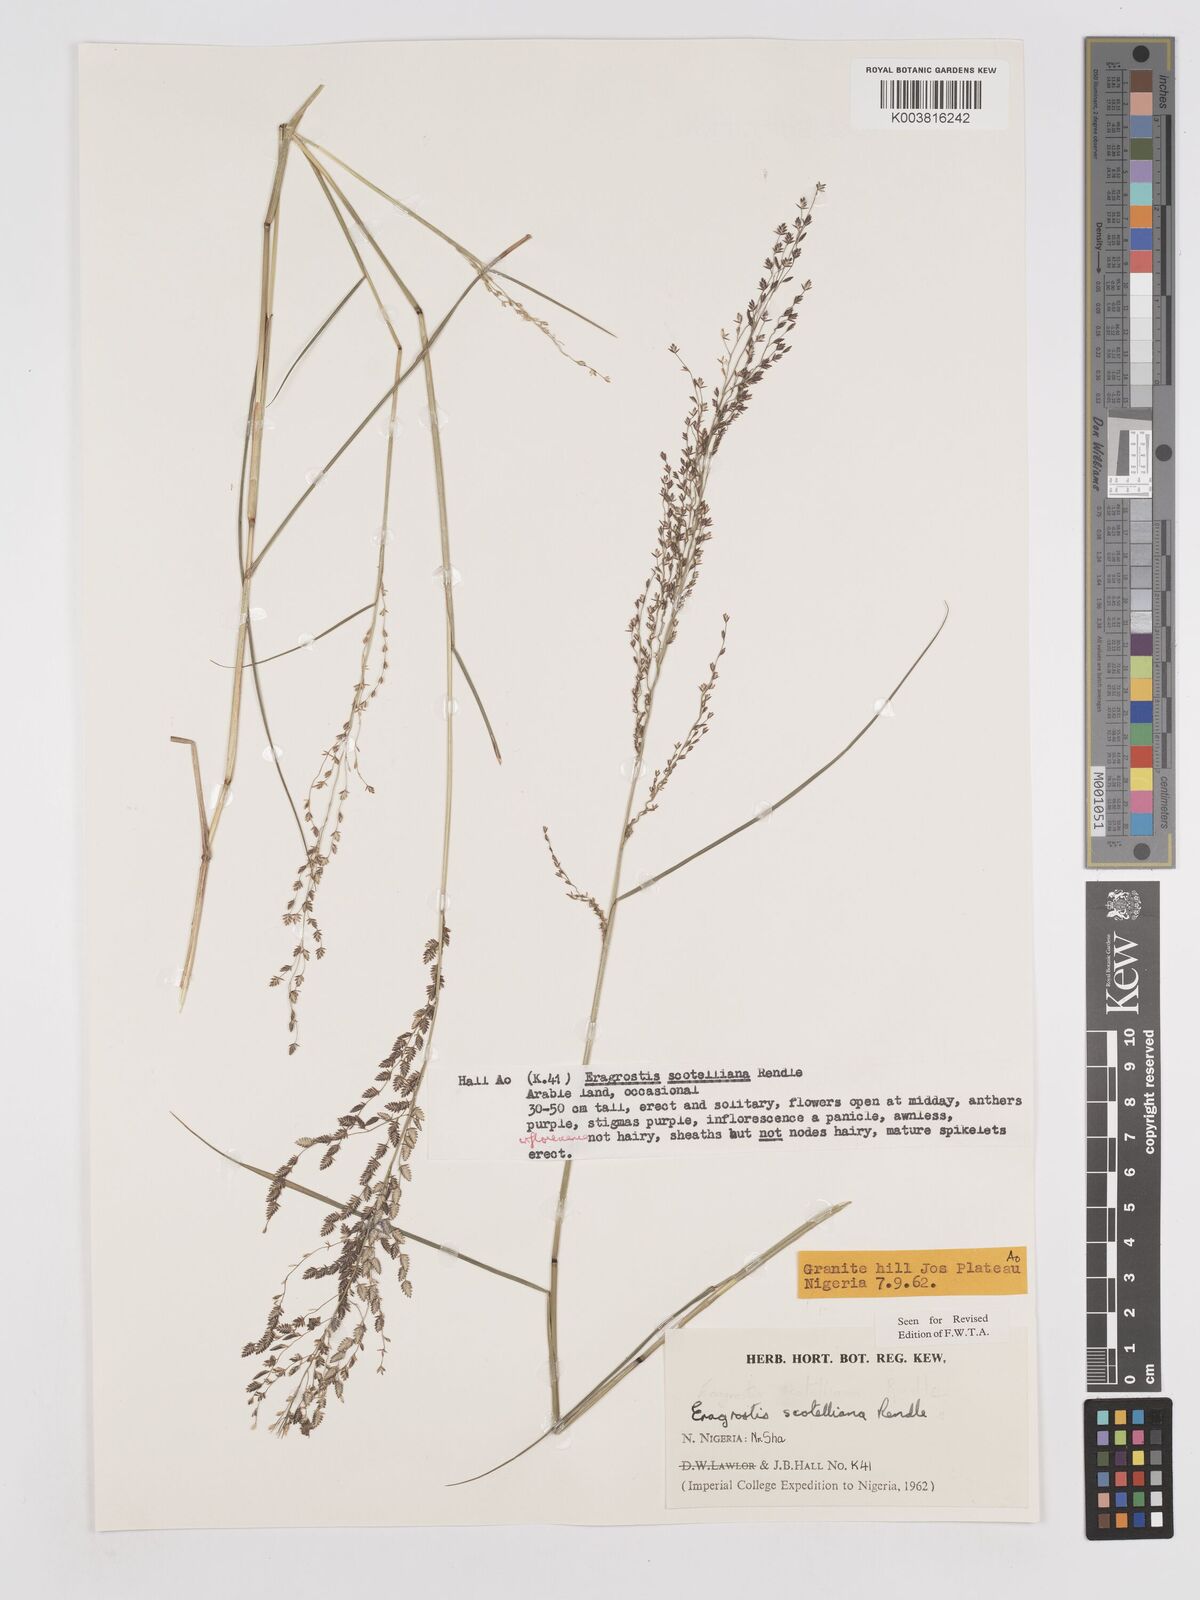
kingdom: Plantae
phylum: Tracheophyta
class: Liliopsida
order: Poales
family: Poaceae
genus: Eragrostis
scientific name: Eragrostis scotelliana
